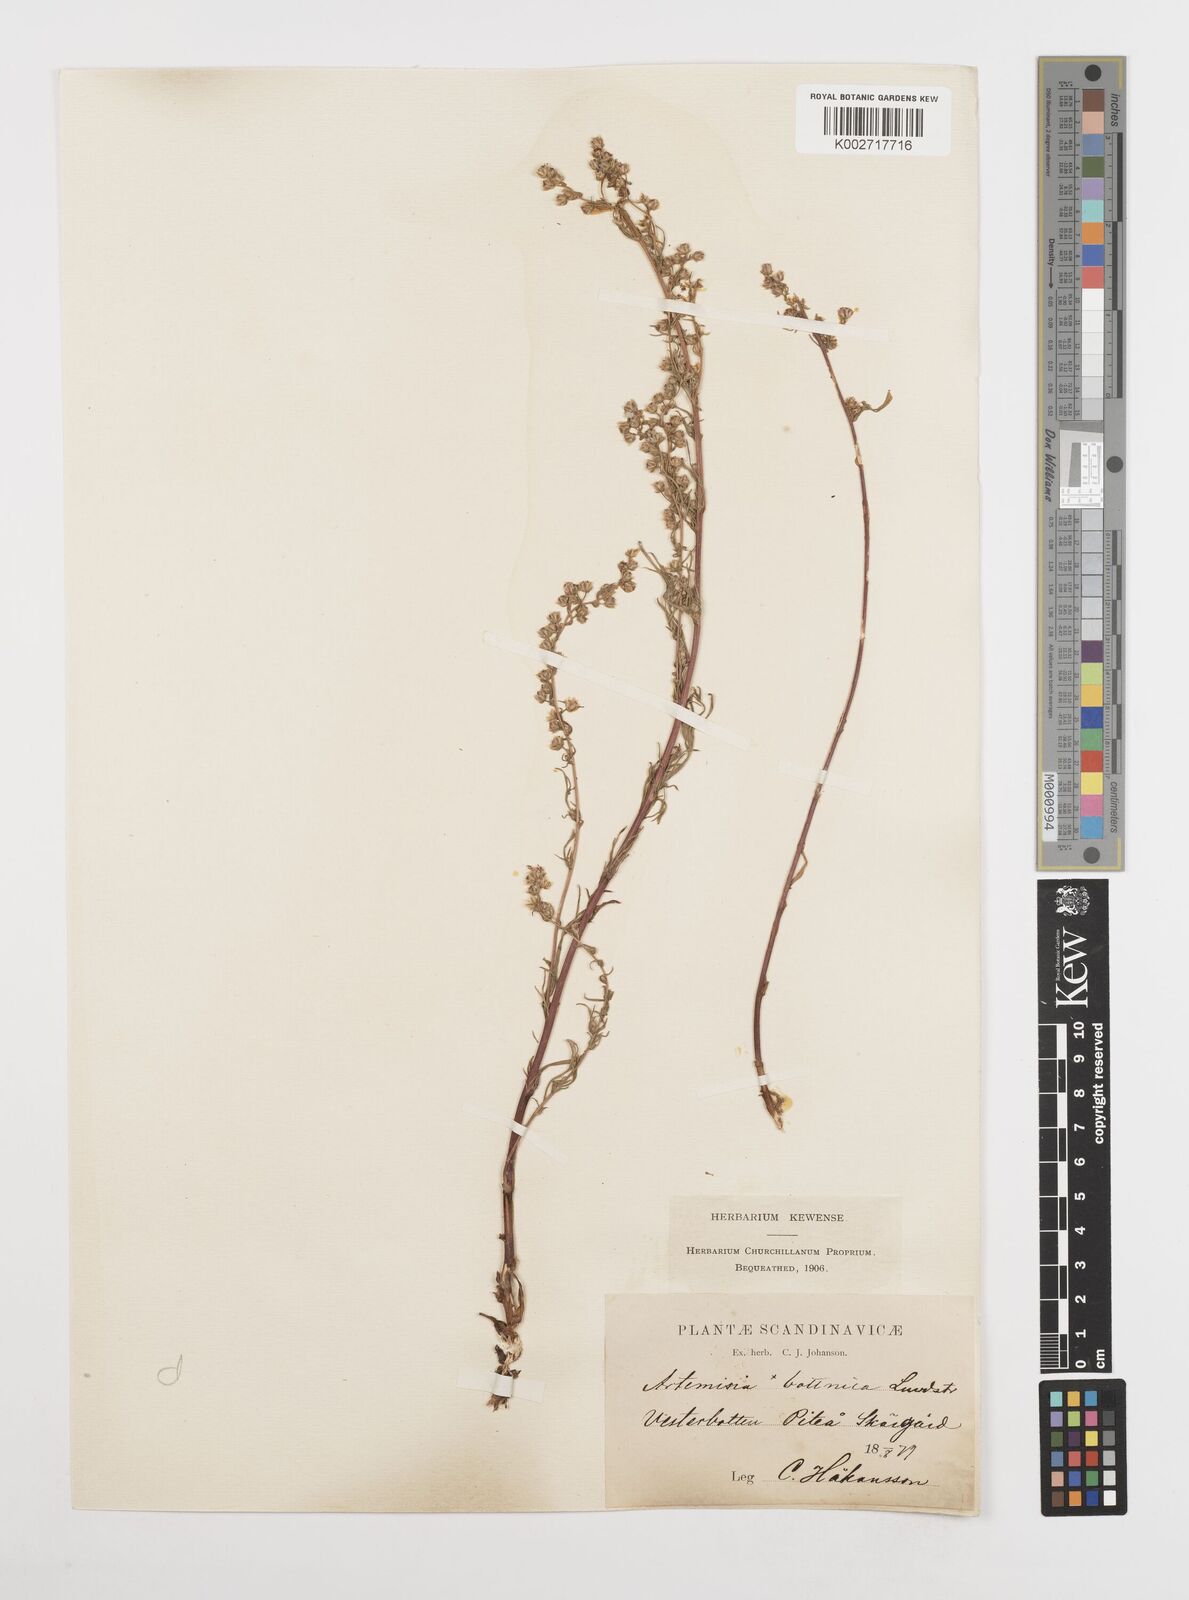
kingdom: Plantae
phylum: Tracheophyta
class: Magnoliopsida
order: Asterales
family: Asteraceae
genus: Artemisia
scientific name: Artemisia campestris
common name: Field wormwood
